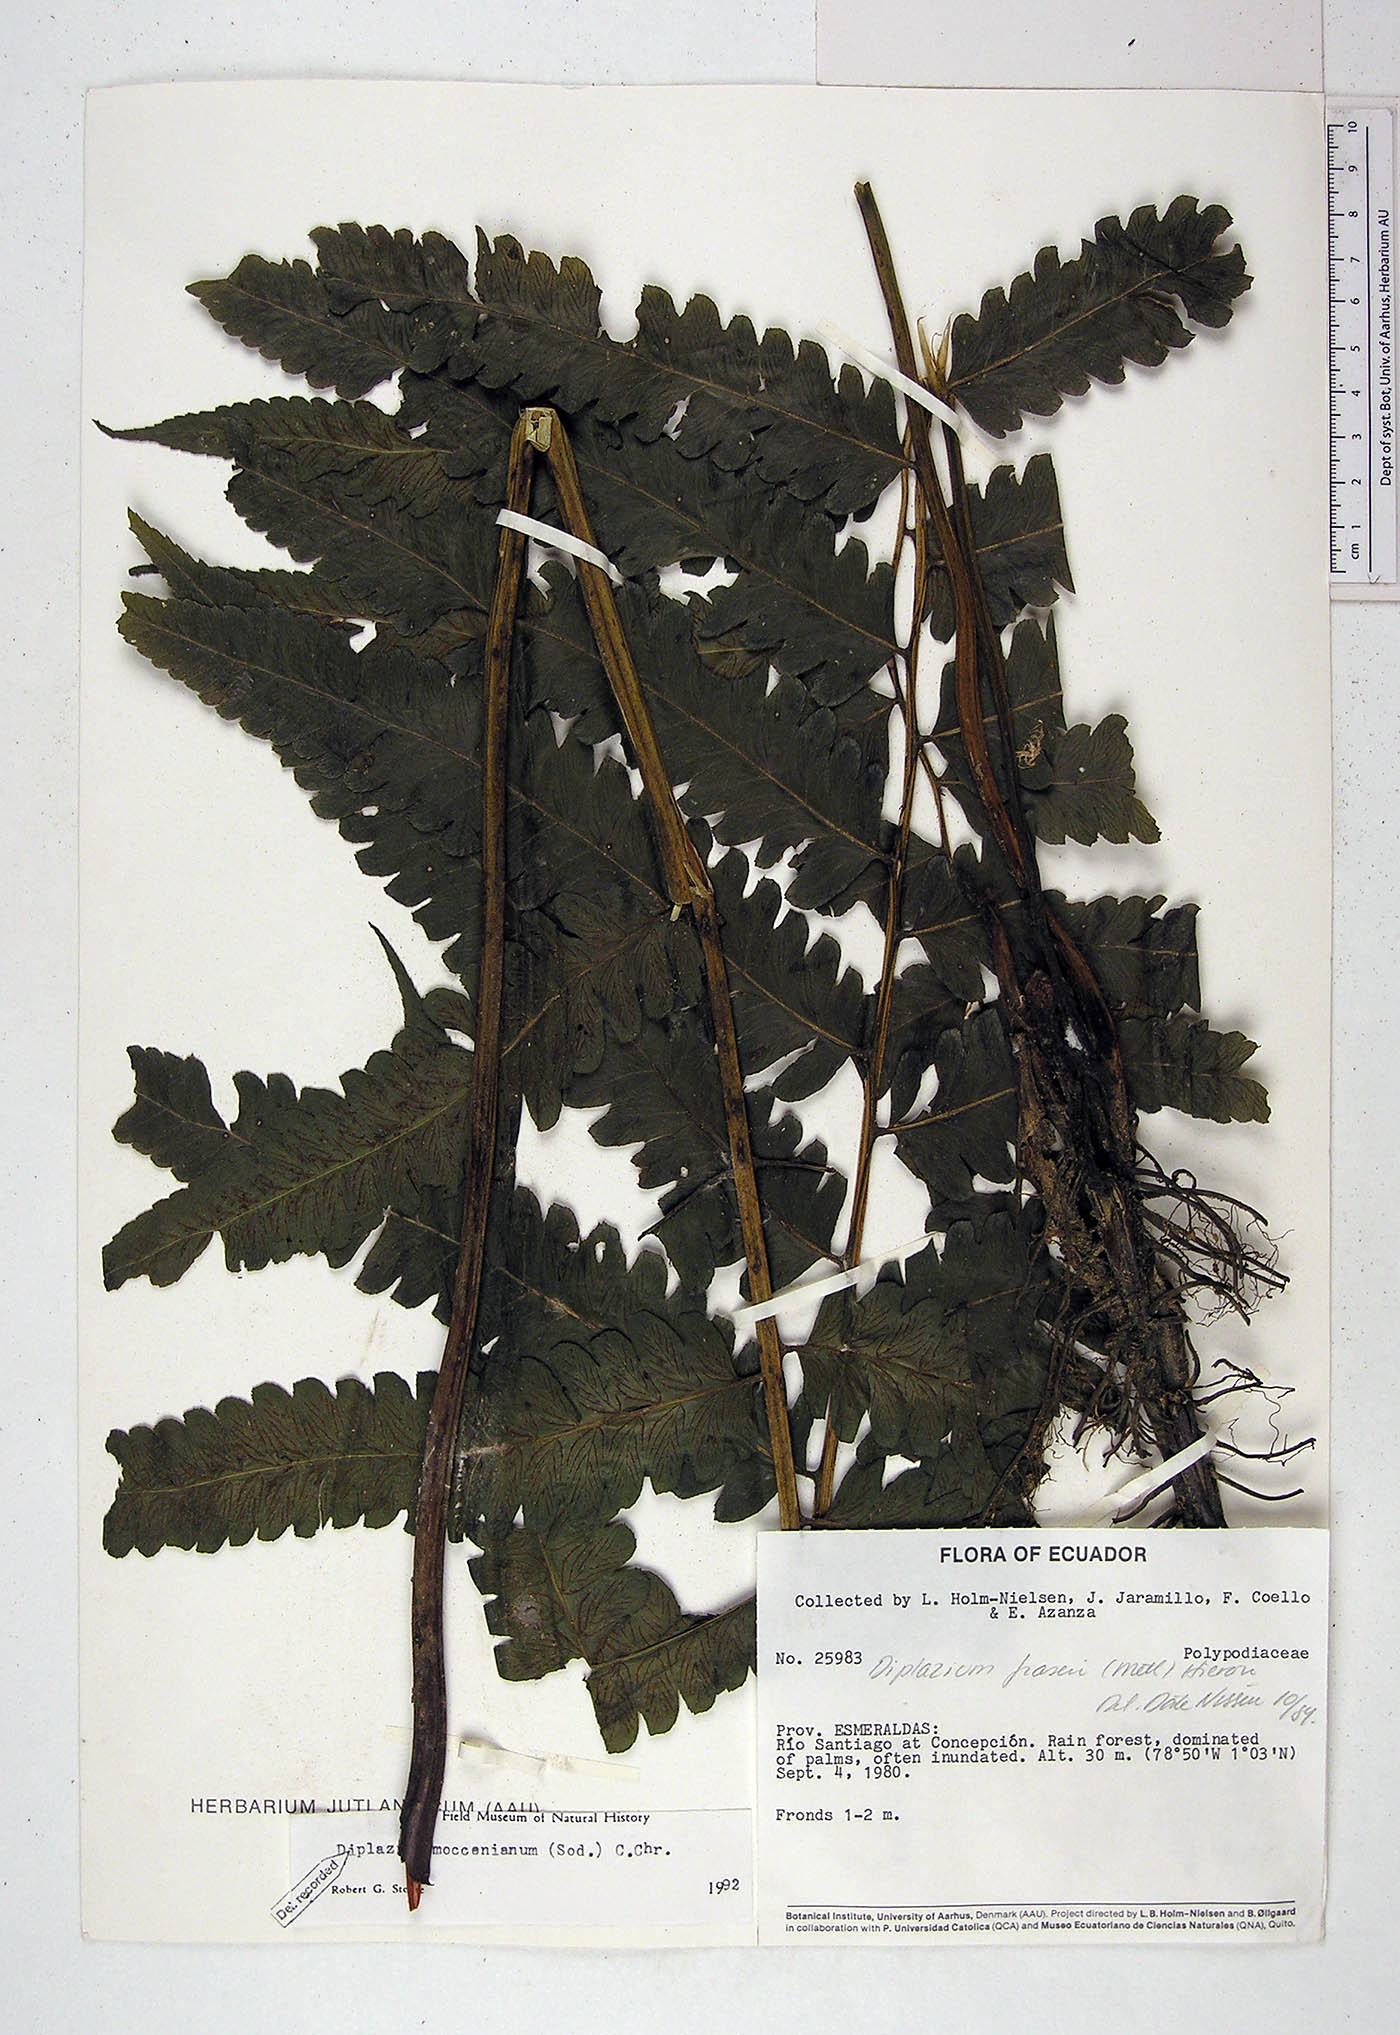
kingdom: Plantae
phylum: Tracheophyta
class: Polypodiopsida
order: Polypodiales
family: Athyriaceae
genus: Diplazium
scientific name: Diplazium moccennianum
